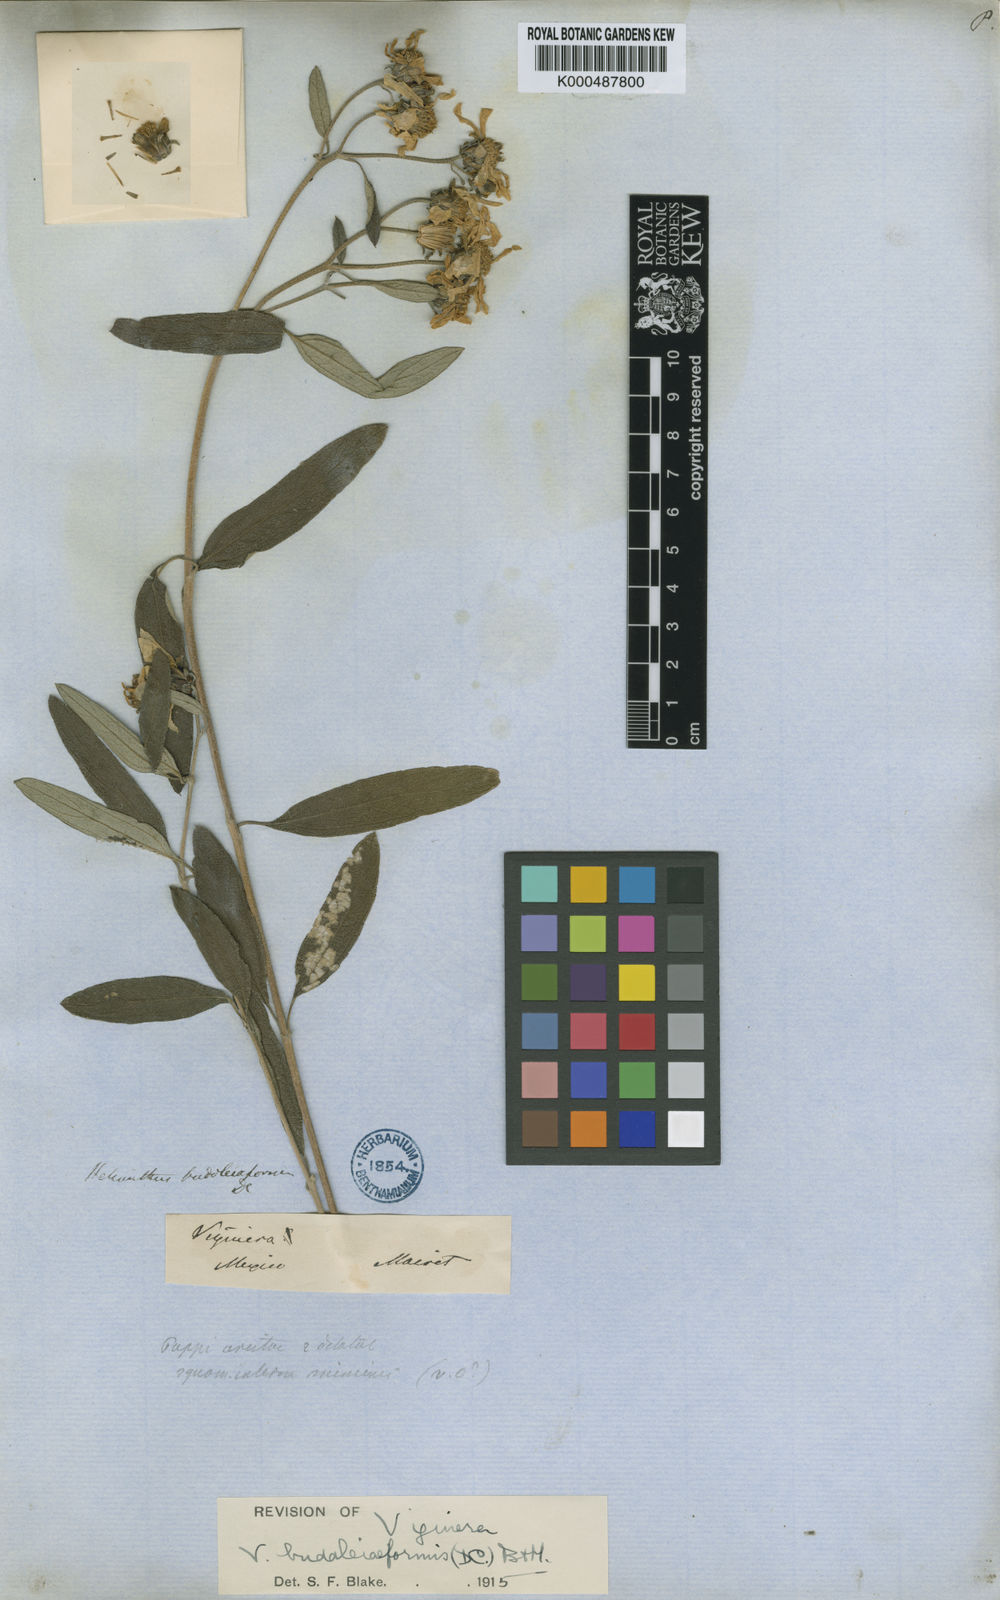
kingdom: Plantae
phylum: Tracheophyta
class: Magnoliopsida
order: Asterales
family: Asteraceae
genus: Aldama
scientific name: Aldama buddlejiformis
